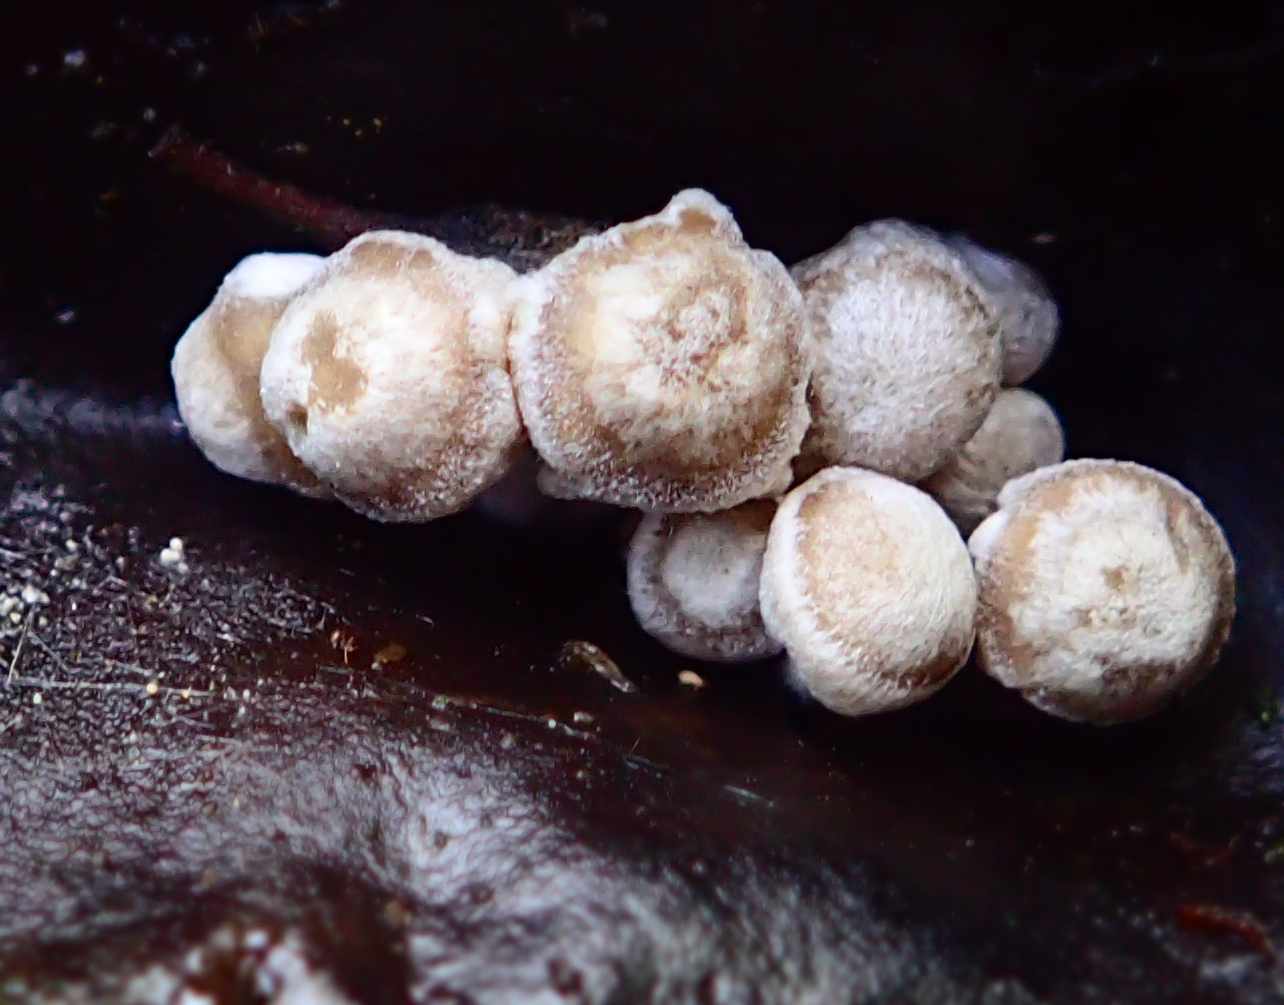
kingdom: Fungi
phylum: Basidiomycota
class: Agaricomycetes
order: Agaricales
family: Lyophyllaceae
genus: Asterophora
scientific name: Asterophora parasitica
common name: grå snyltehat
